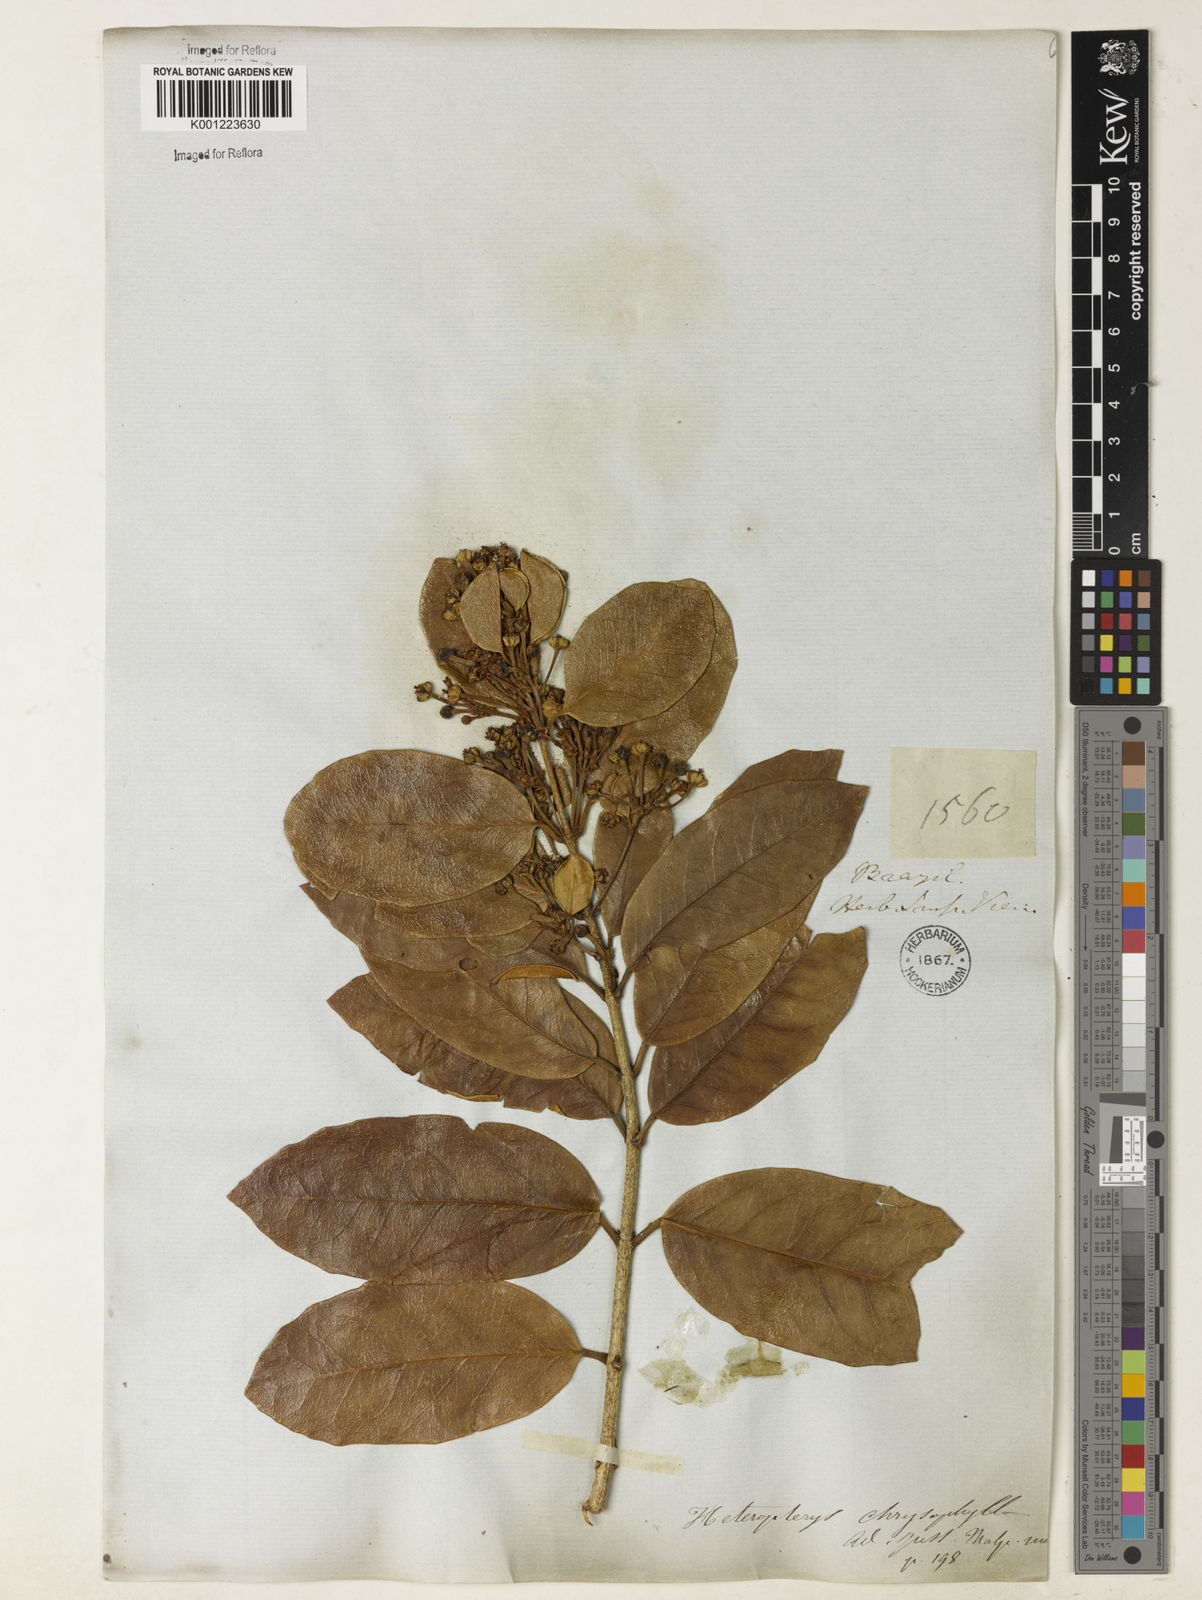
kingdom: Plantae
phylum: Tracheophyta
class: Magnoliopsida
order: Malpighiales
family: Malpighiaceae
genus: Heteropterys
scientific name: Heteropterys chrysophylla
